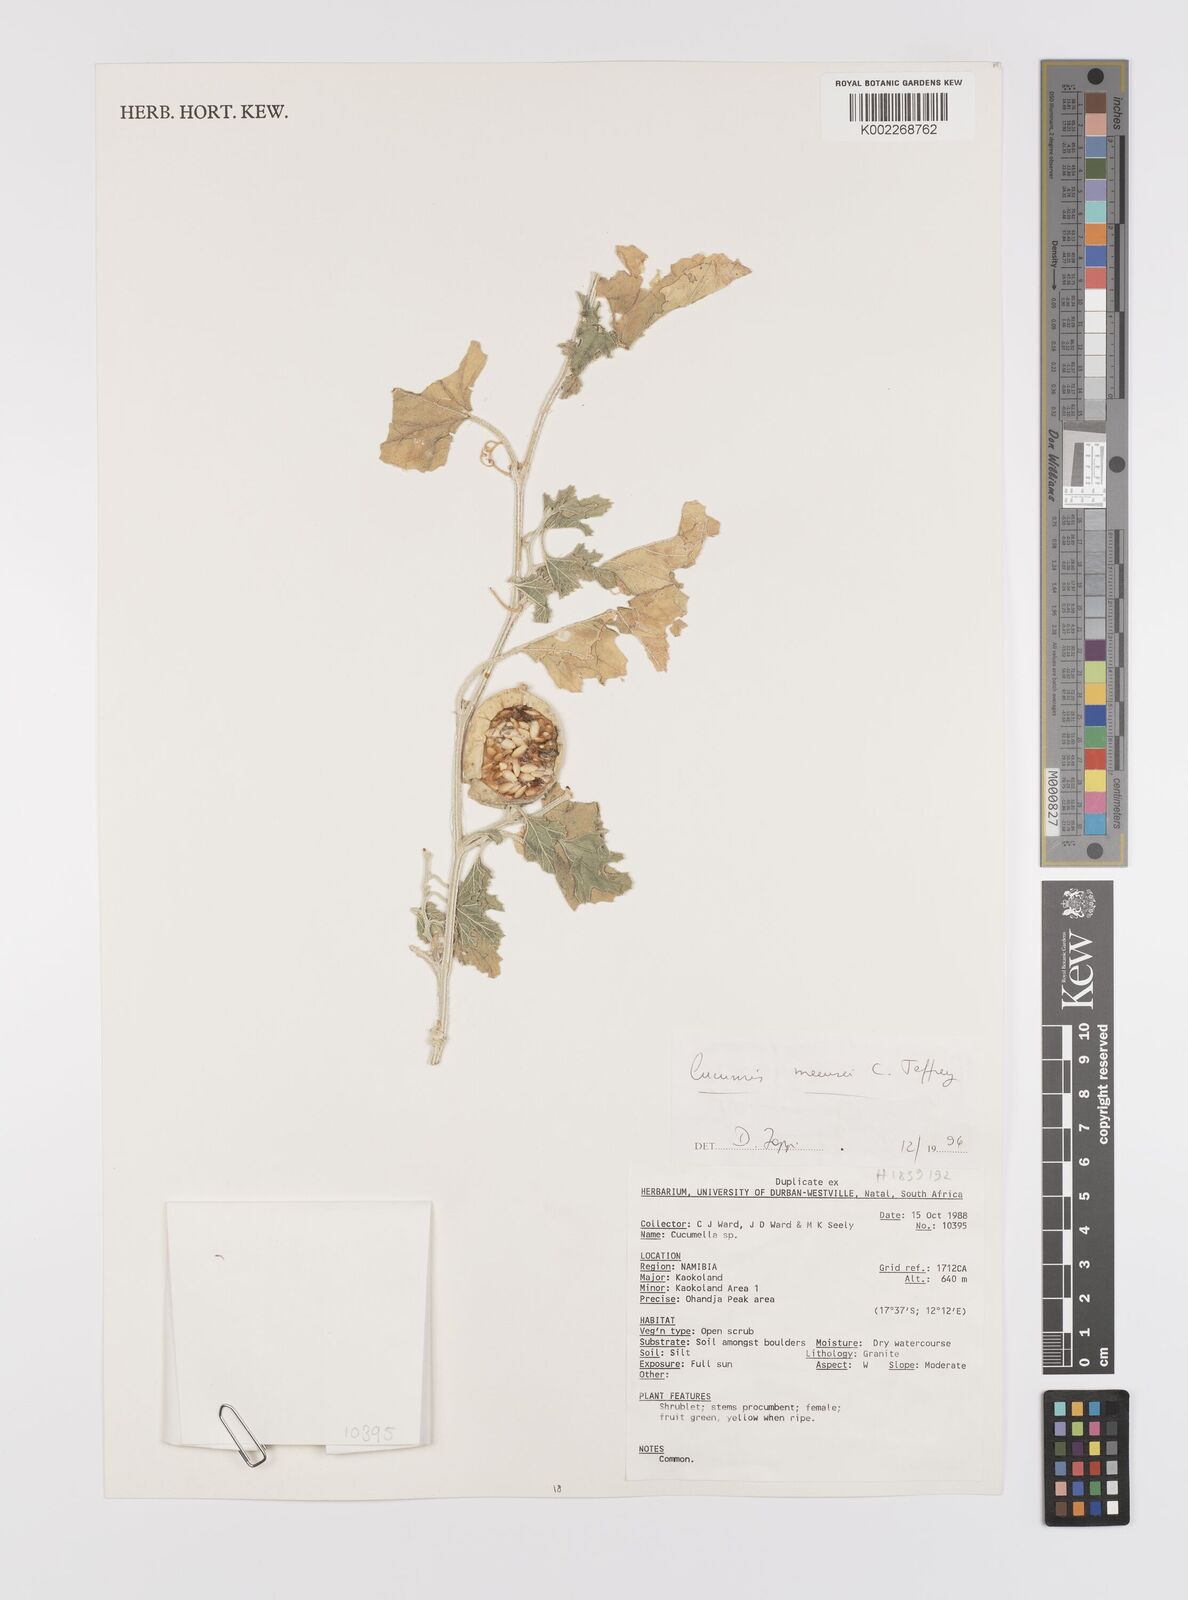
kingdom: Plantae
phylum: Tracheophyta
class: Magnoliopsida
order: Cucurbitales
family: Cucurbitaceae
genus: Cucumis
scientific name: Cucumis meeusei
